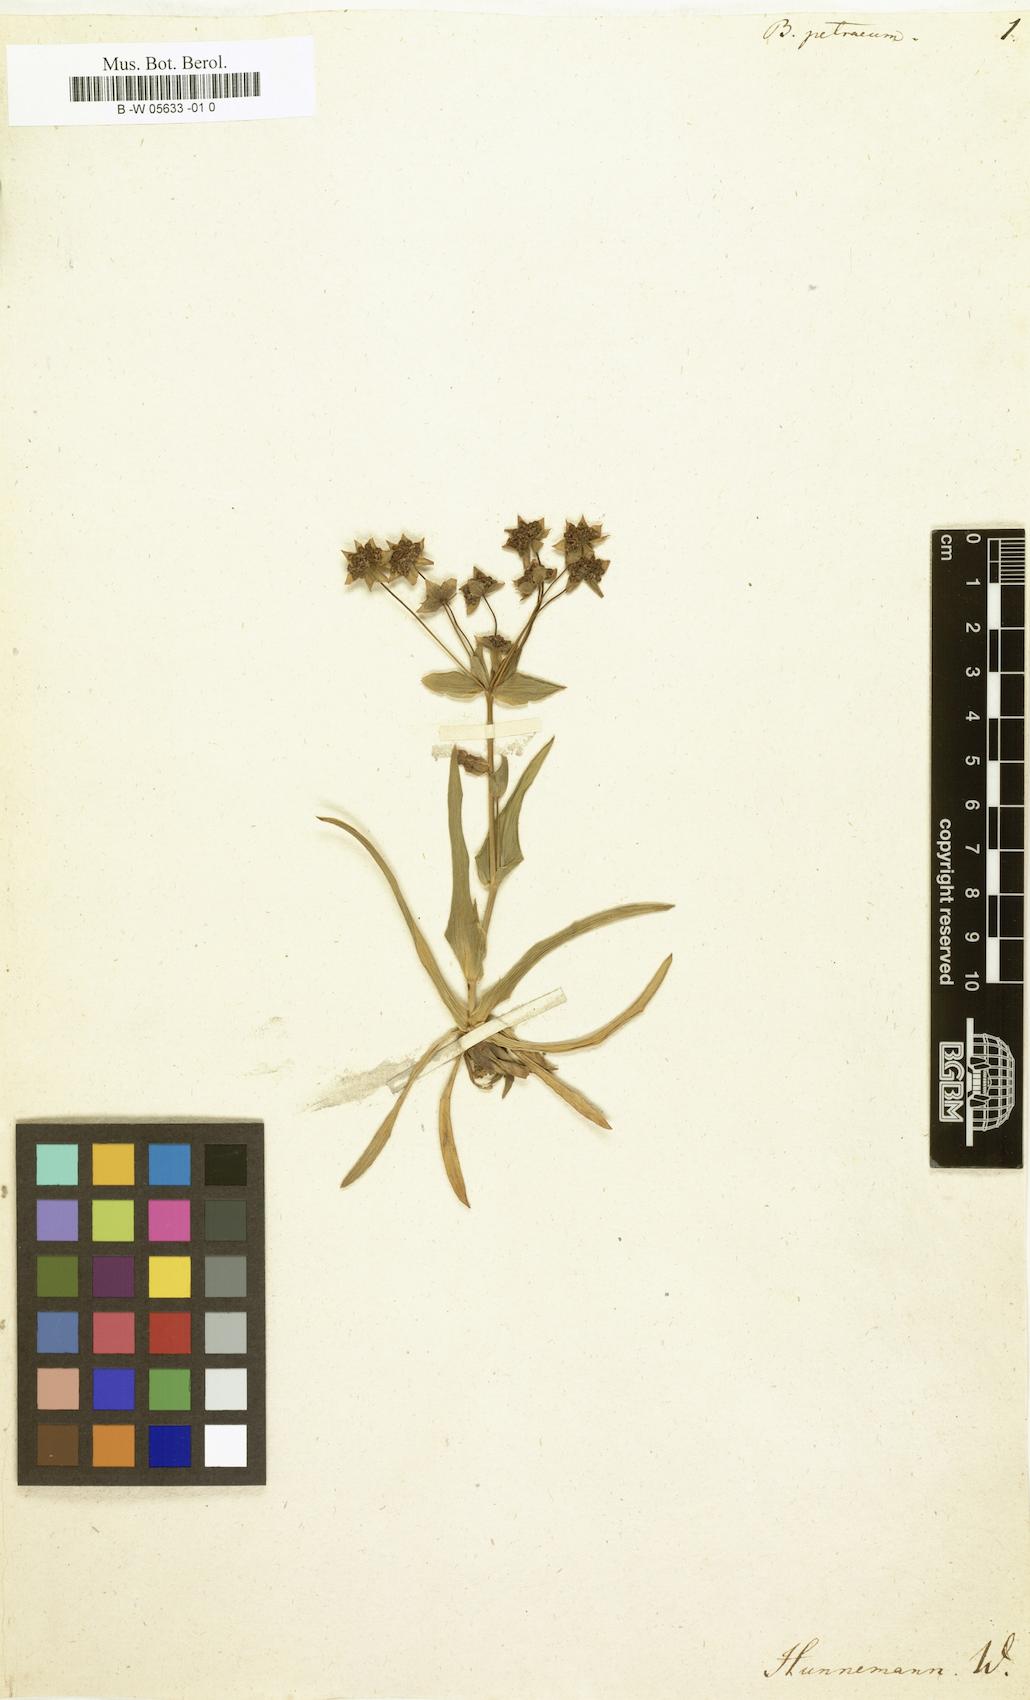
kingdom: Plantae
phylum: Tracheophyta
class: Magnoliopsida
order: Apiales
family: Apiaceae
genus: Bupleurum
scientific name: Bupleurum petraeum
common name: Rock hare's-ear
